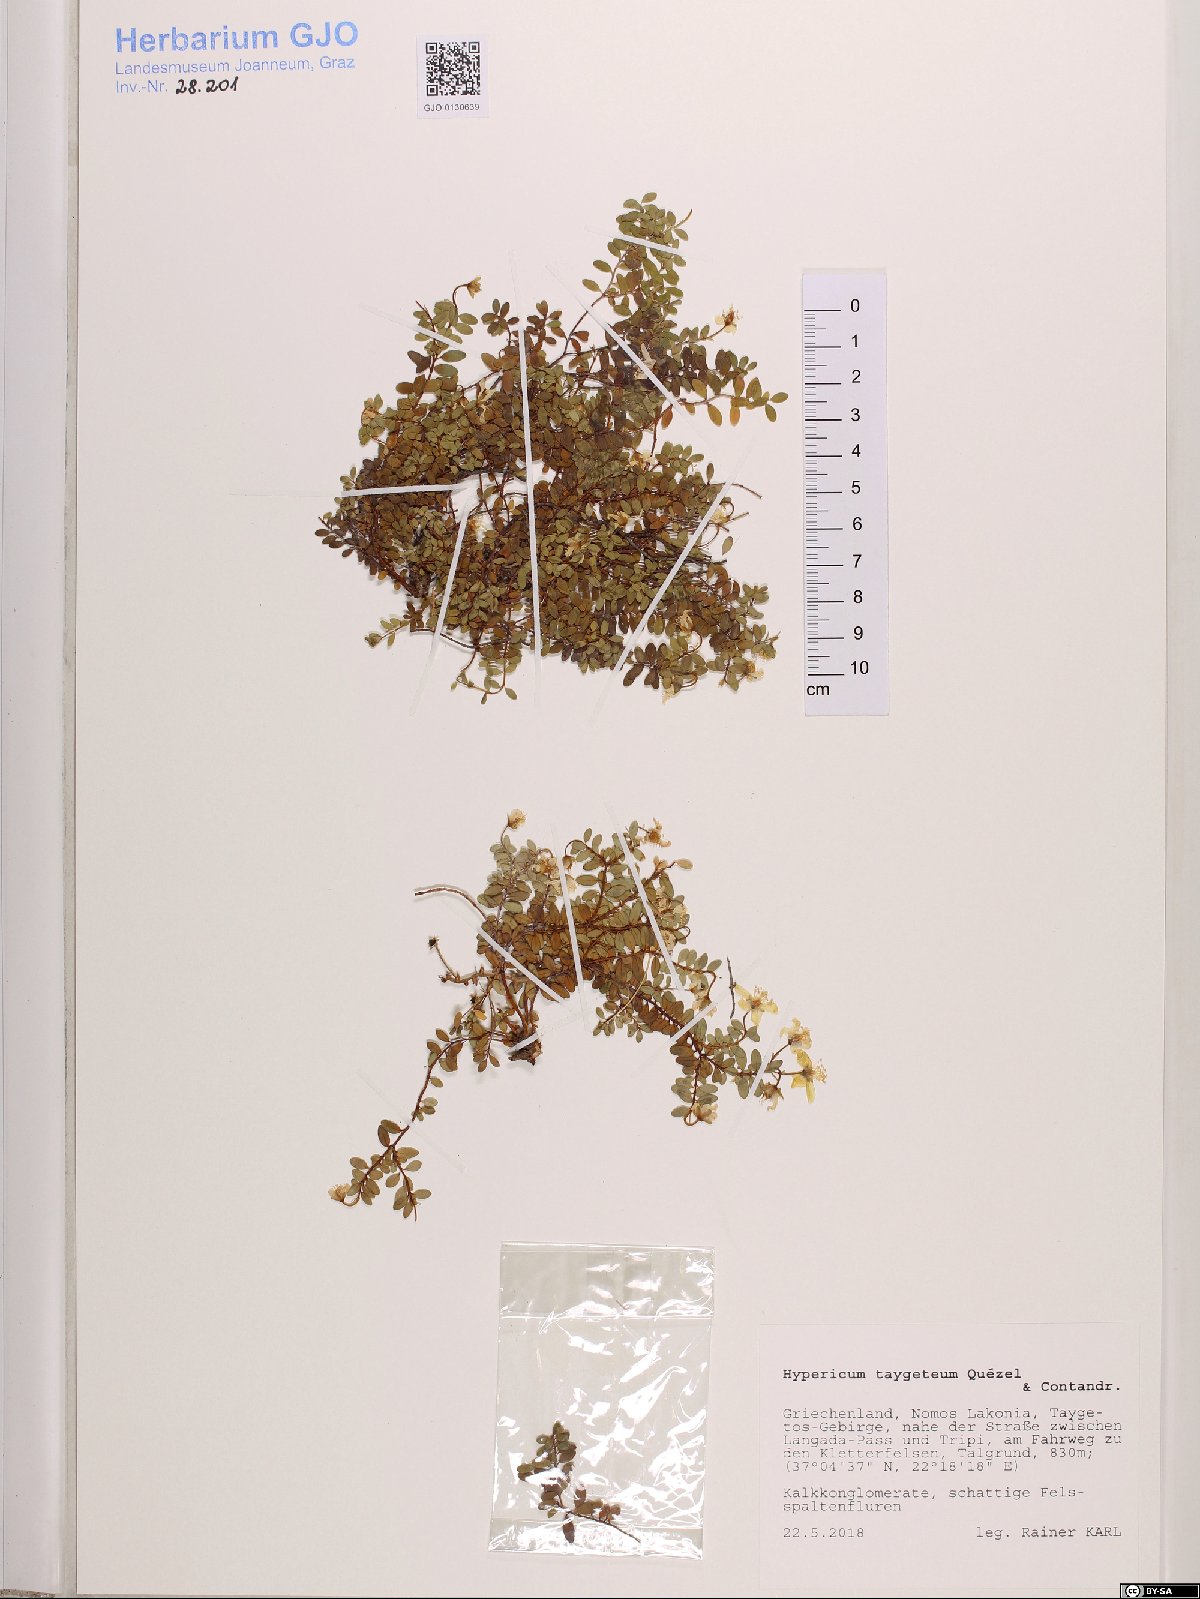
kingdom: Plantae
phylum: Tracheophyta
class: Magnoliopsida
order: Malpighiales
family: Hypericaceae
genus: Hypericum
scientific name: Hypericum taygeteum
